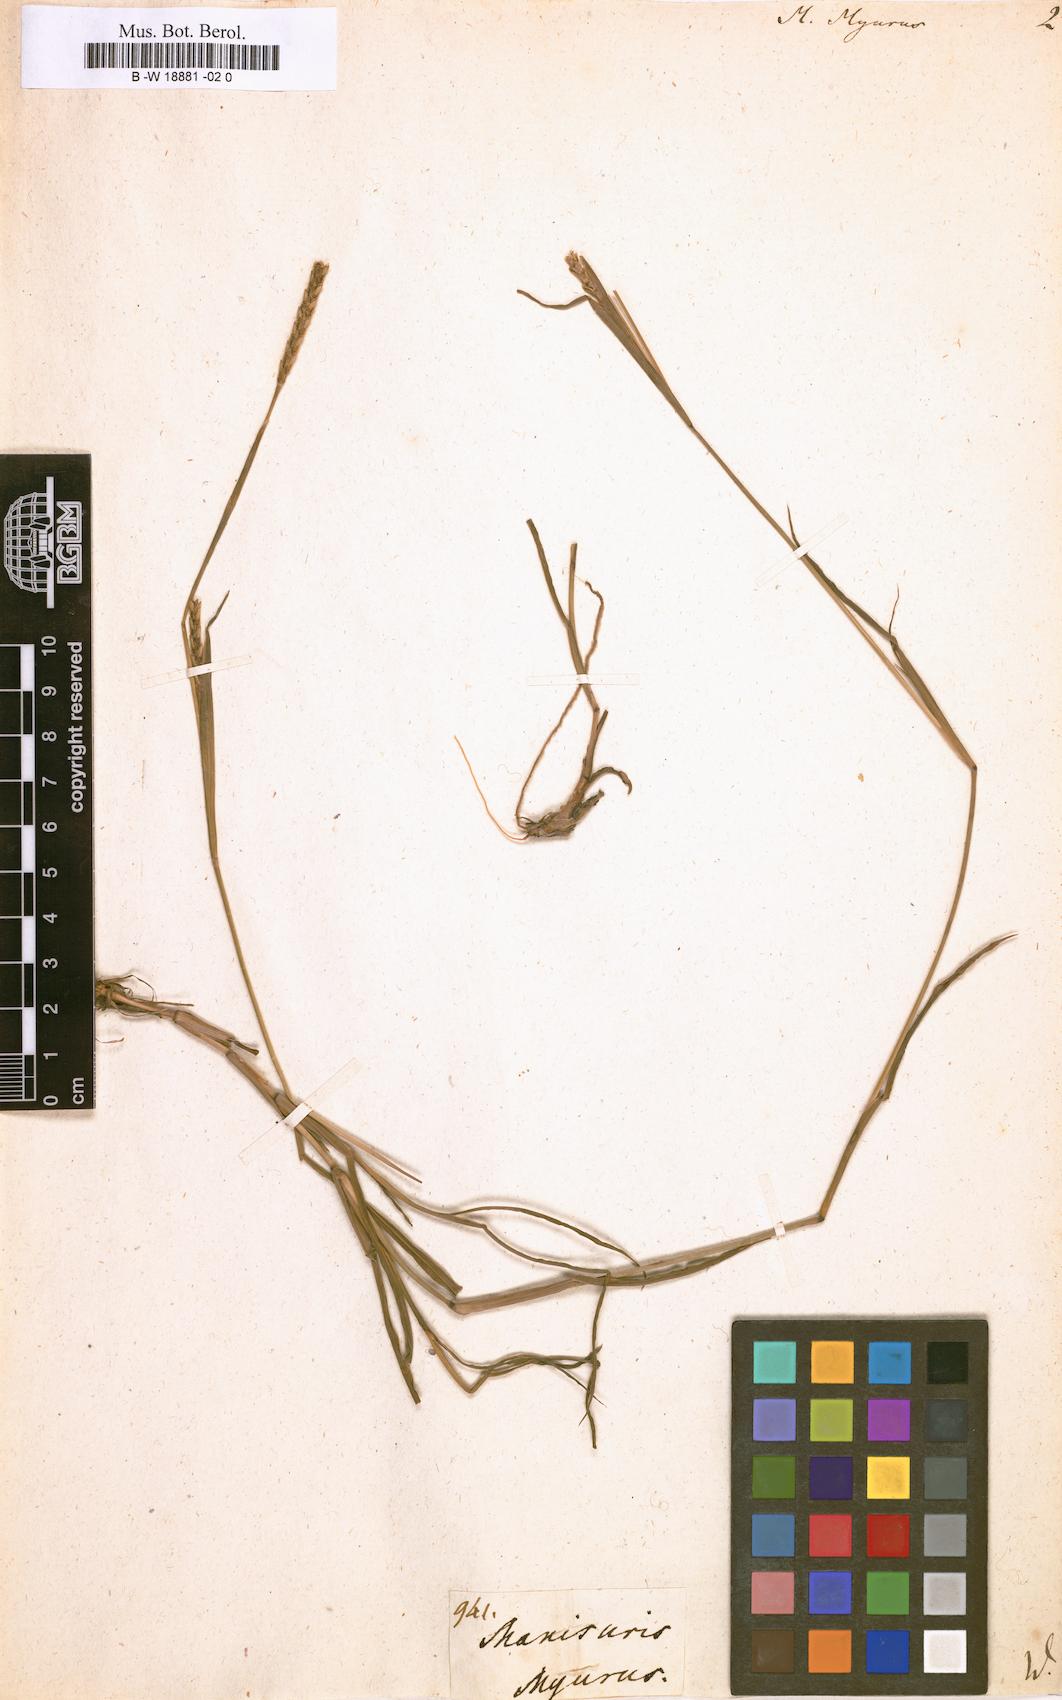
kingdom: Plantae
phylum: Tracheophyta
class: Liliopsida
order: Poales
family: Poaceae
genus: Manisuris
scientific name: Manisuris myurus
